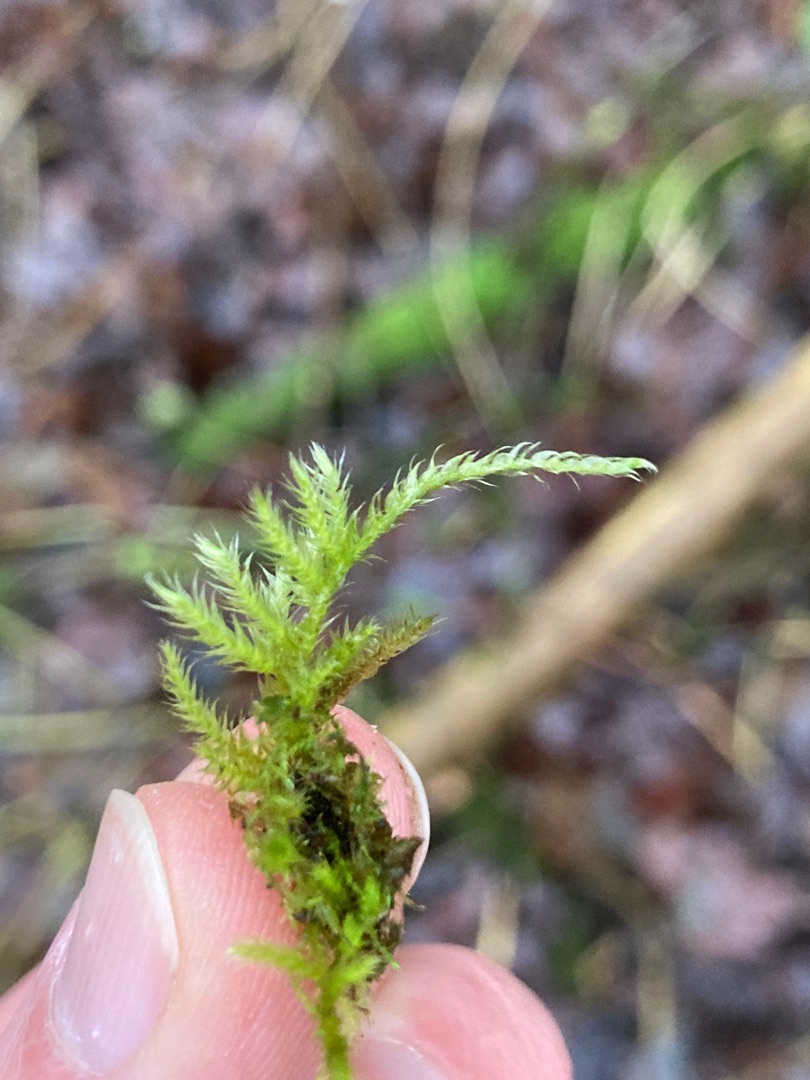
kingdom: Plantae
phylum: Bryophyta
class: Bryopsida
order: Hypnales
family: Brachytheciaceae
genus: Brachythecium
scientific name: Brachythecium salebrosum
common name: Skov-kortkapsel
